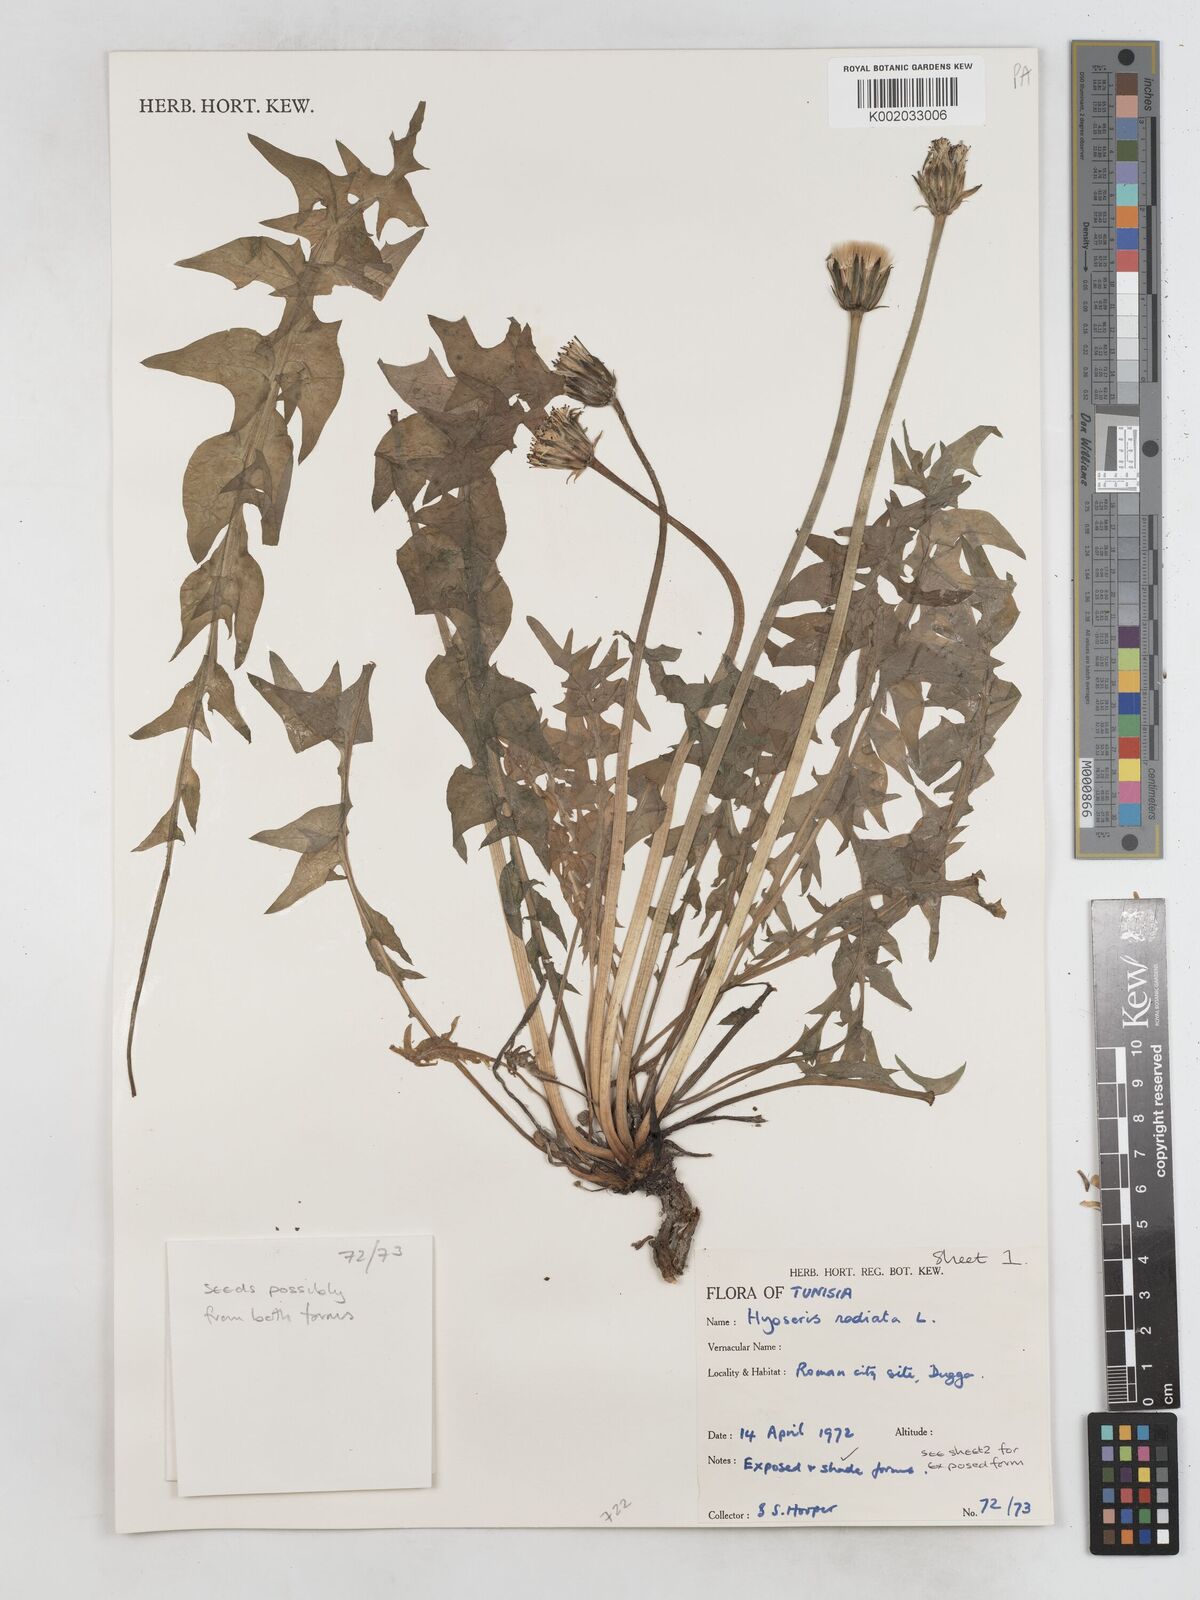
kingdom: Plantae
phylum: Tracheophyta
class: Magnoliopsida
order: Asterales
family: Asteraceae
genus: Hyoseris
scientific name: Hyoseris radiata
